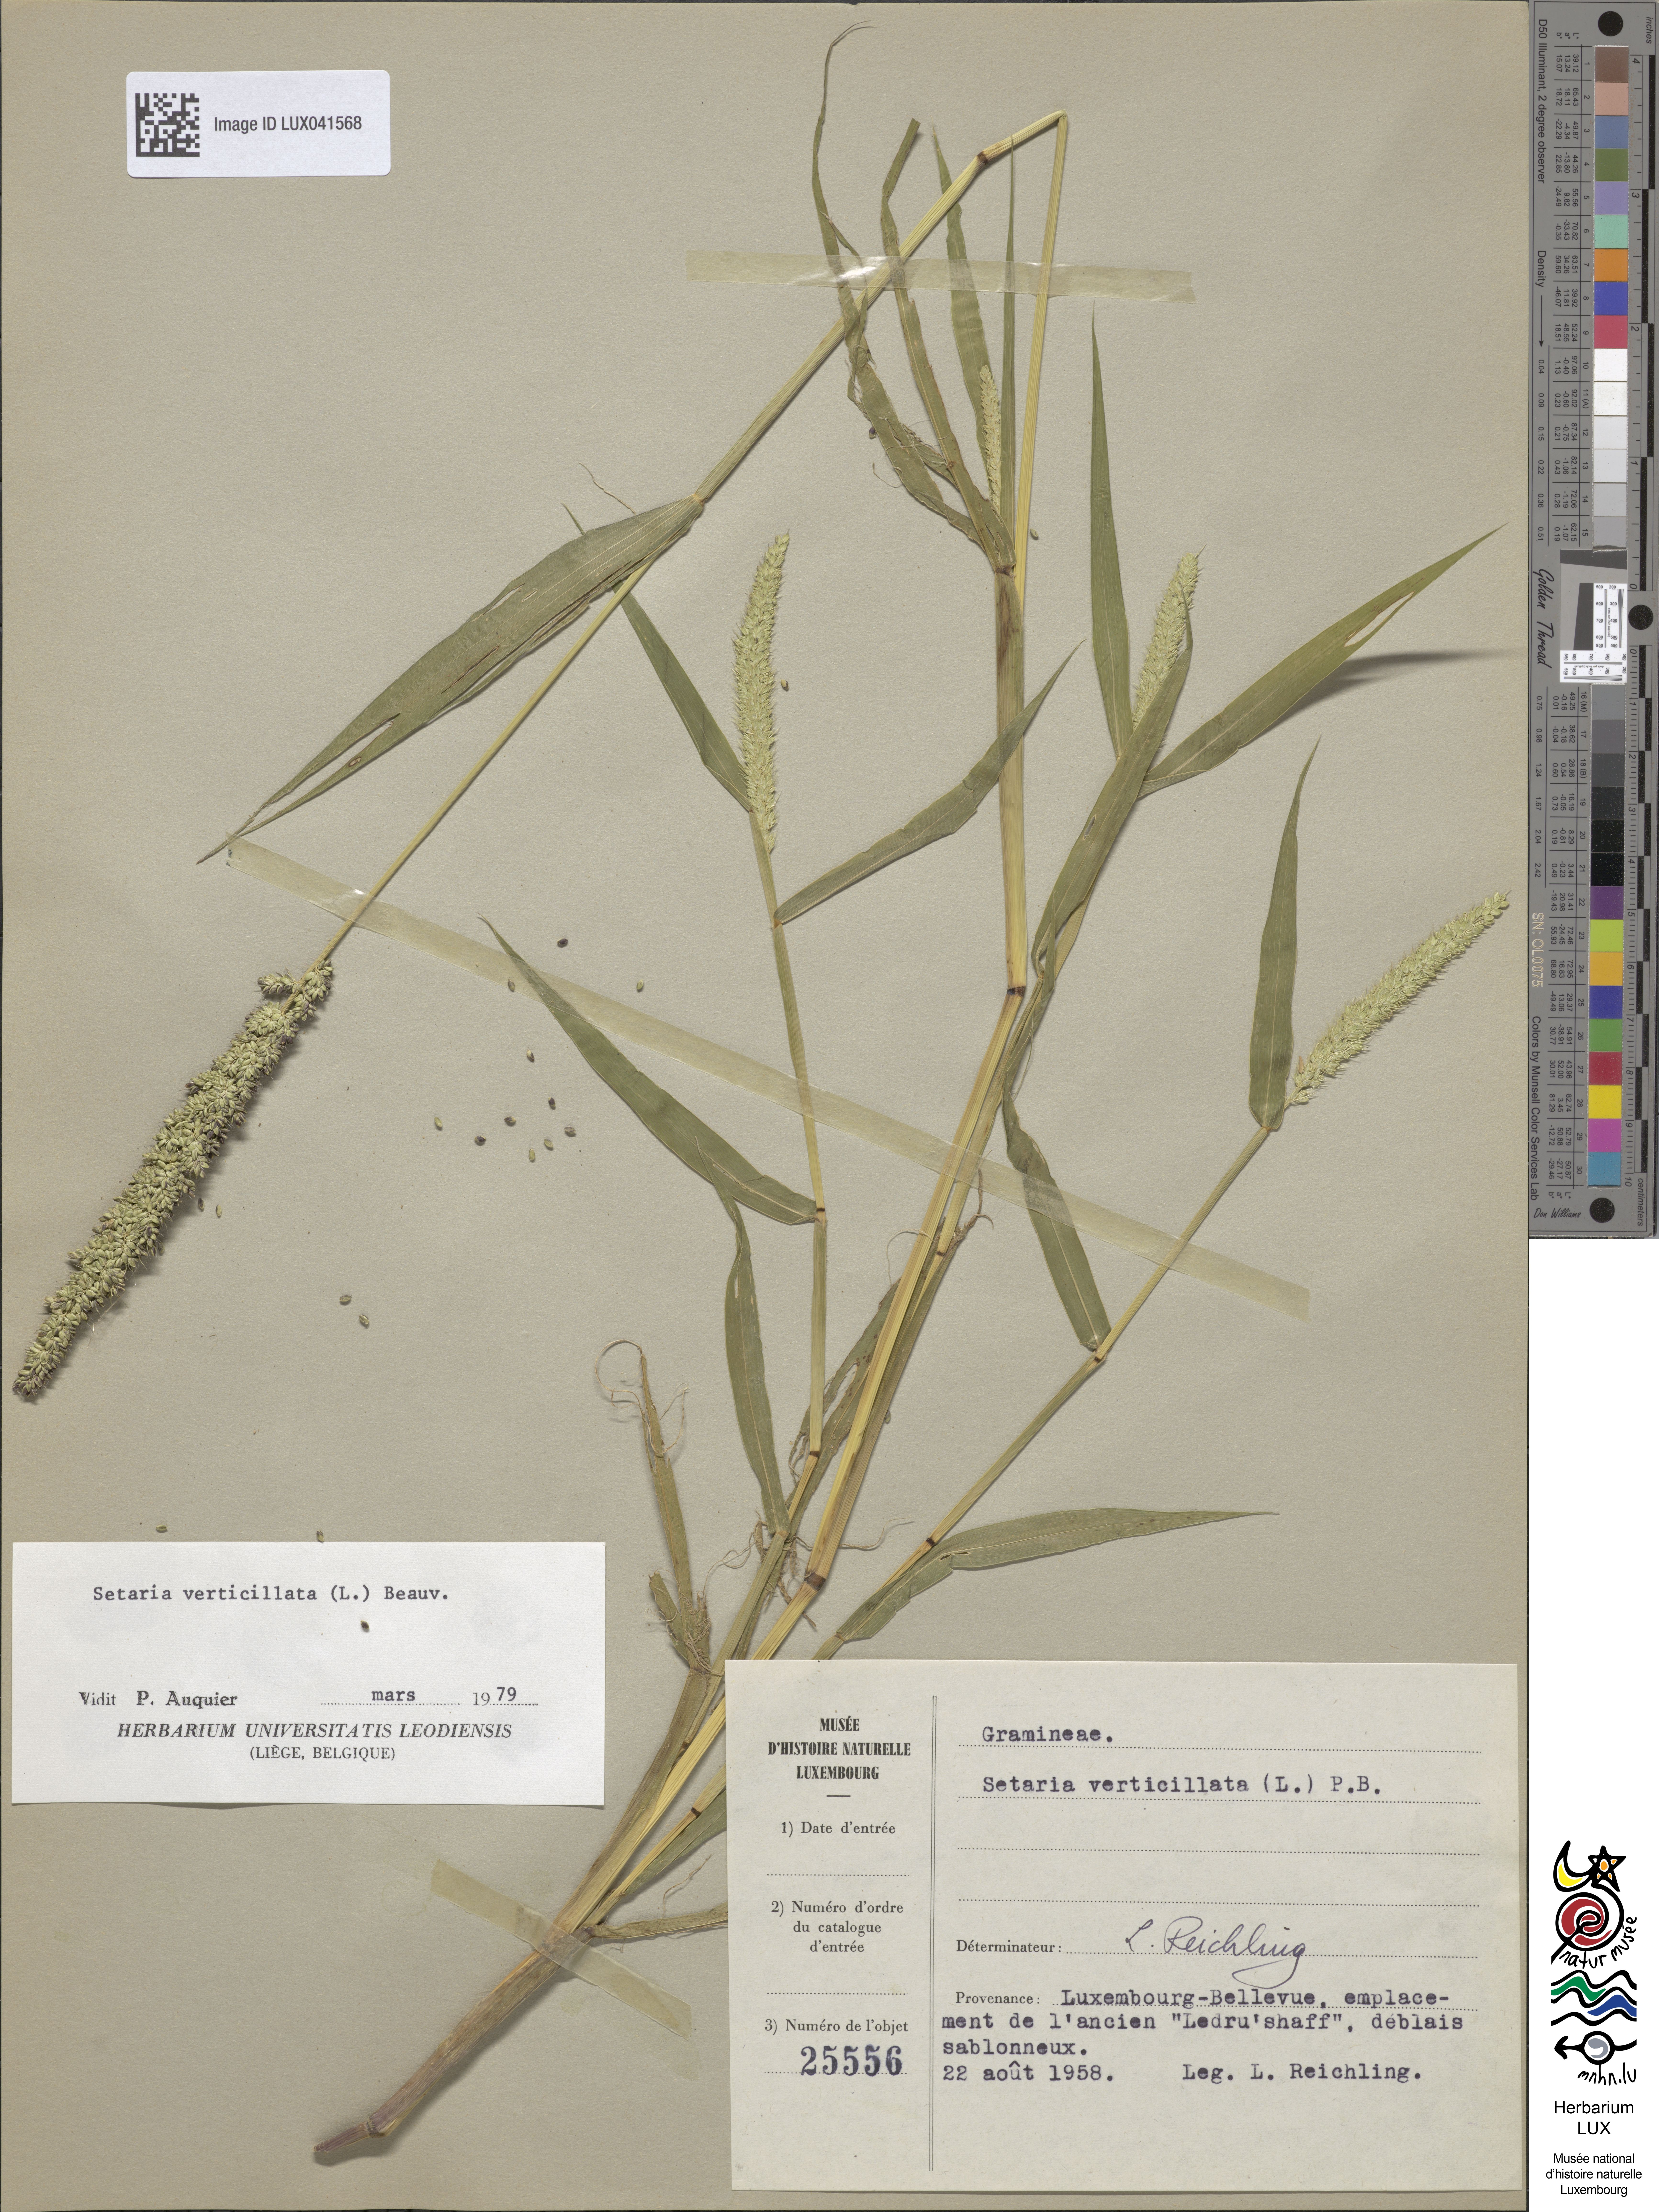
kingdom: Plantae
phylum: Tracheophyta
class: Liliopsida
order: Poales
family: Poaceae
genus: Setaria
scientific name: Setaria verticillata
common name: Hooked bristlegrass
